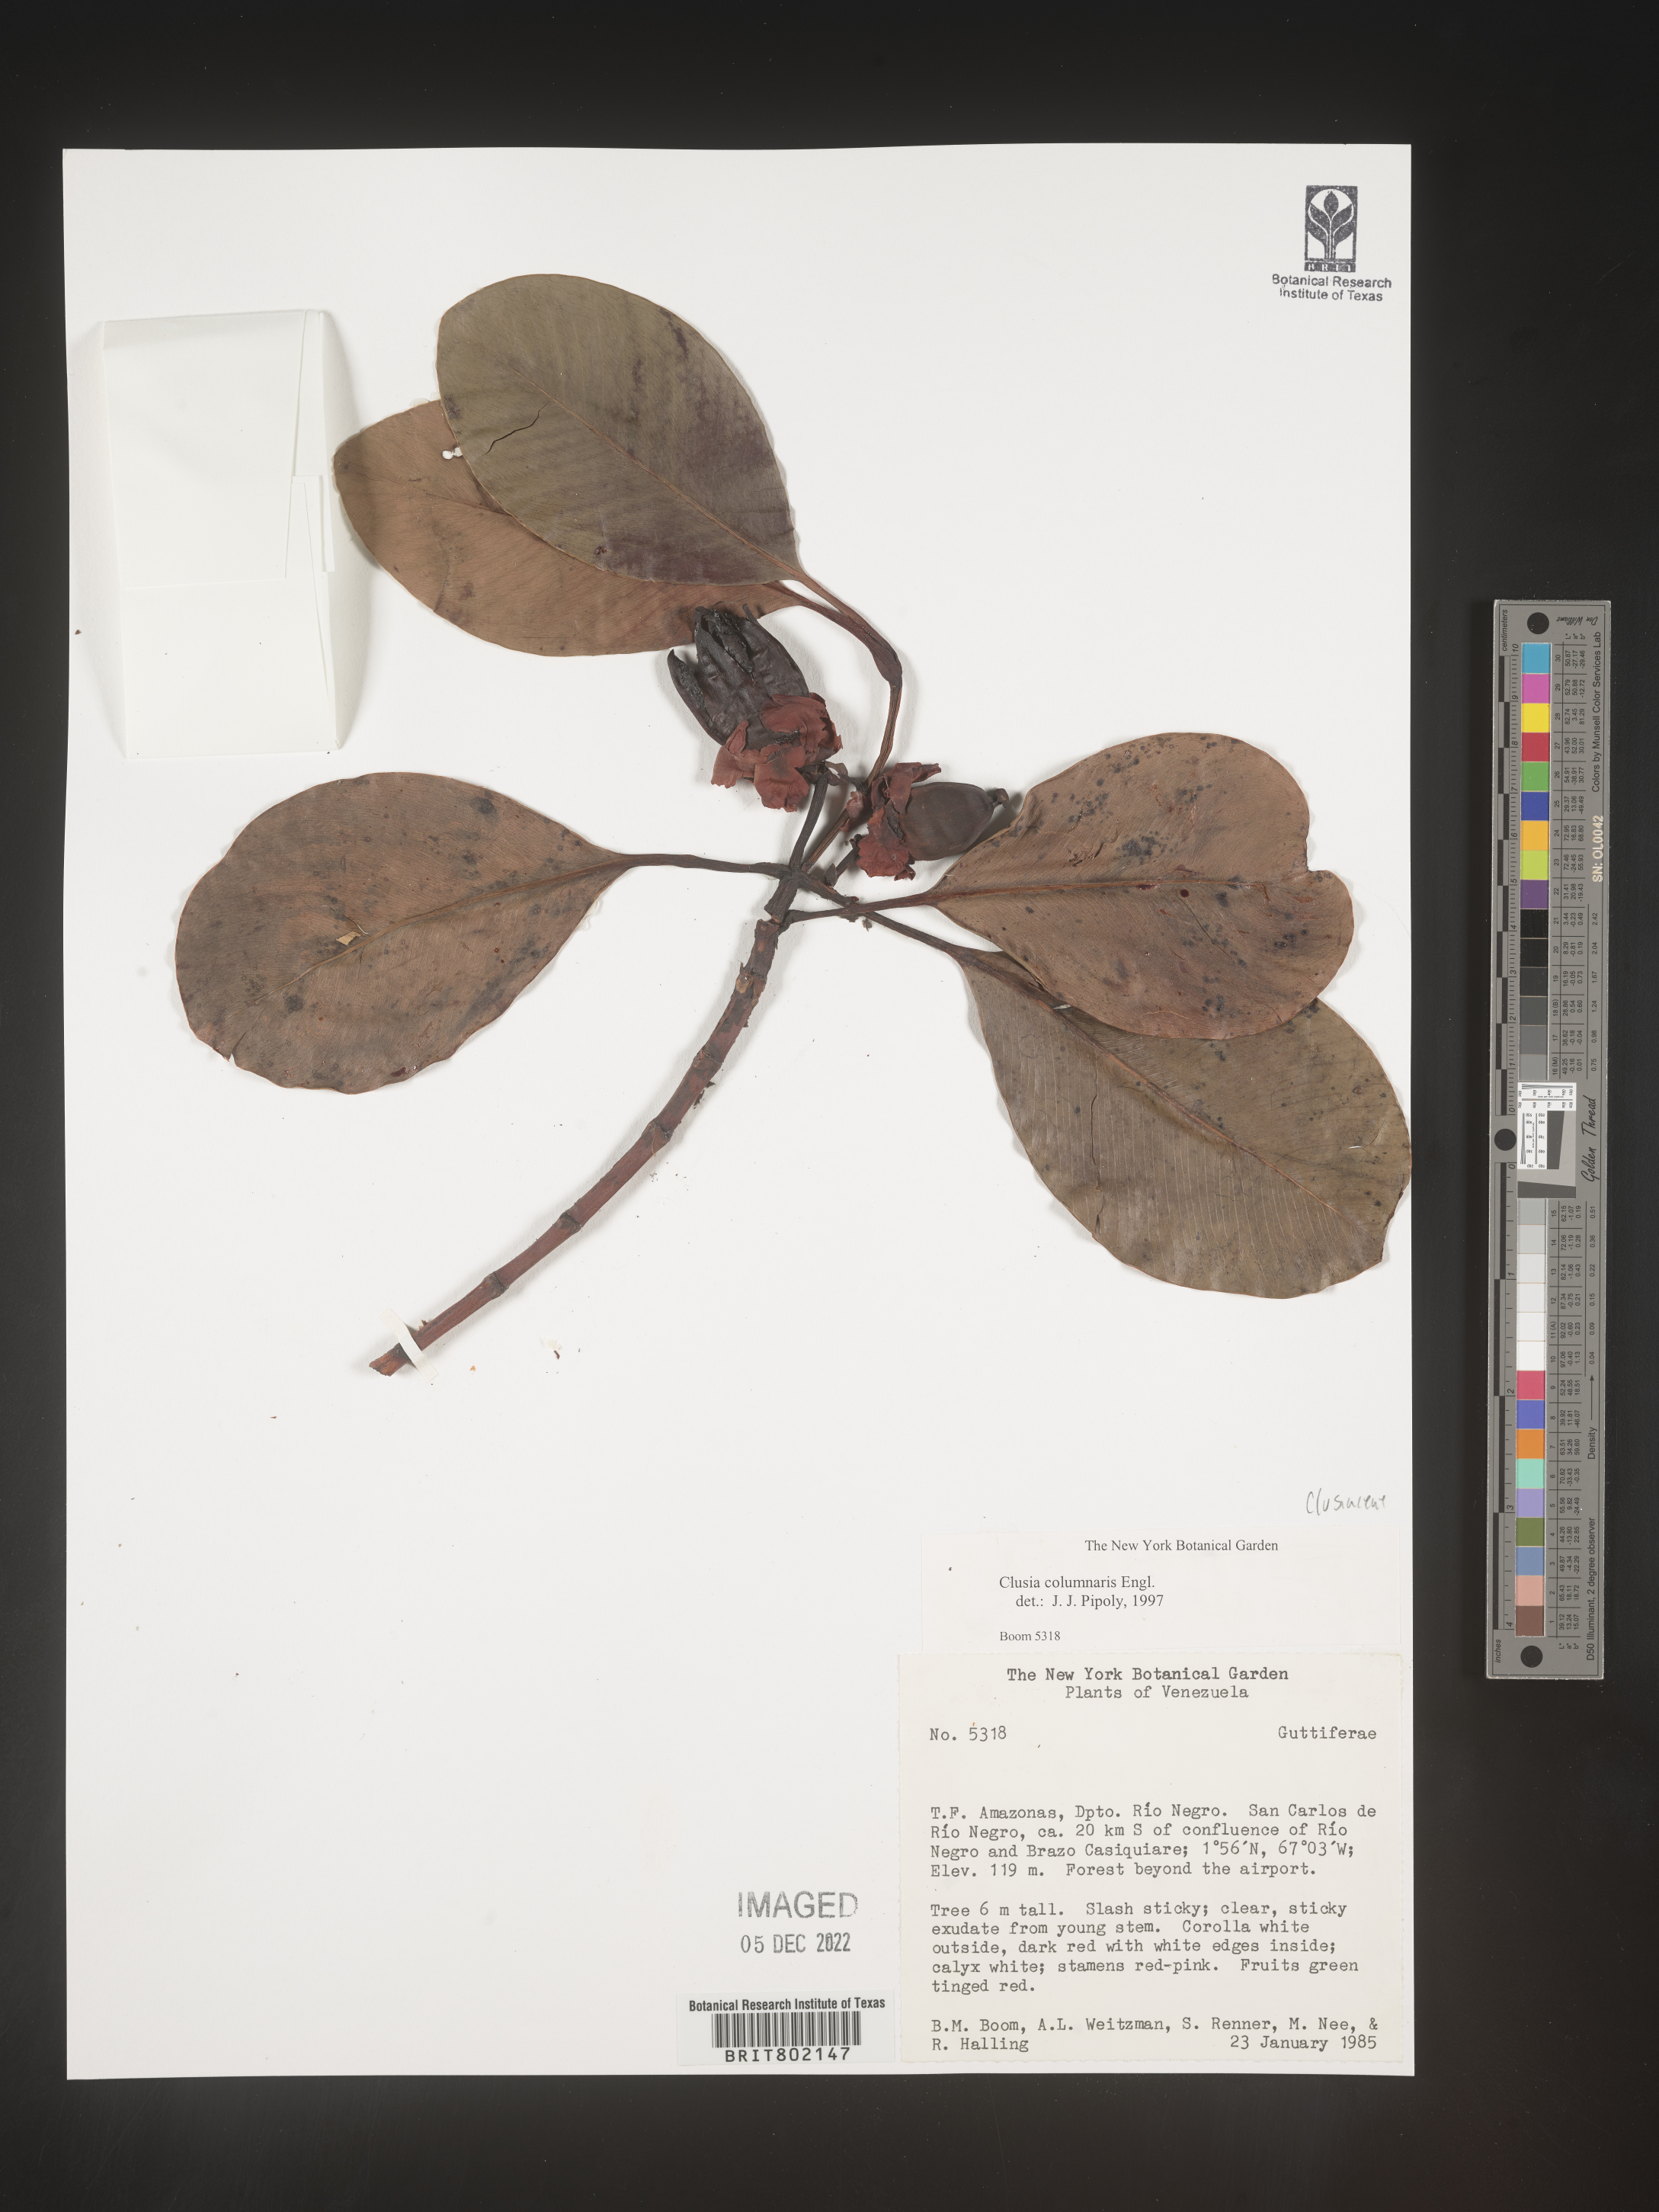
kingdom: Plantae
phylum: Tracheophyta
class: Magnoliopsida
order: Malpighiales
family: Clusiaceae
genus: Clusia
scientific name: Clusia columnaris
